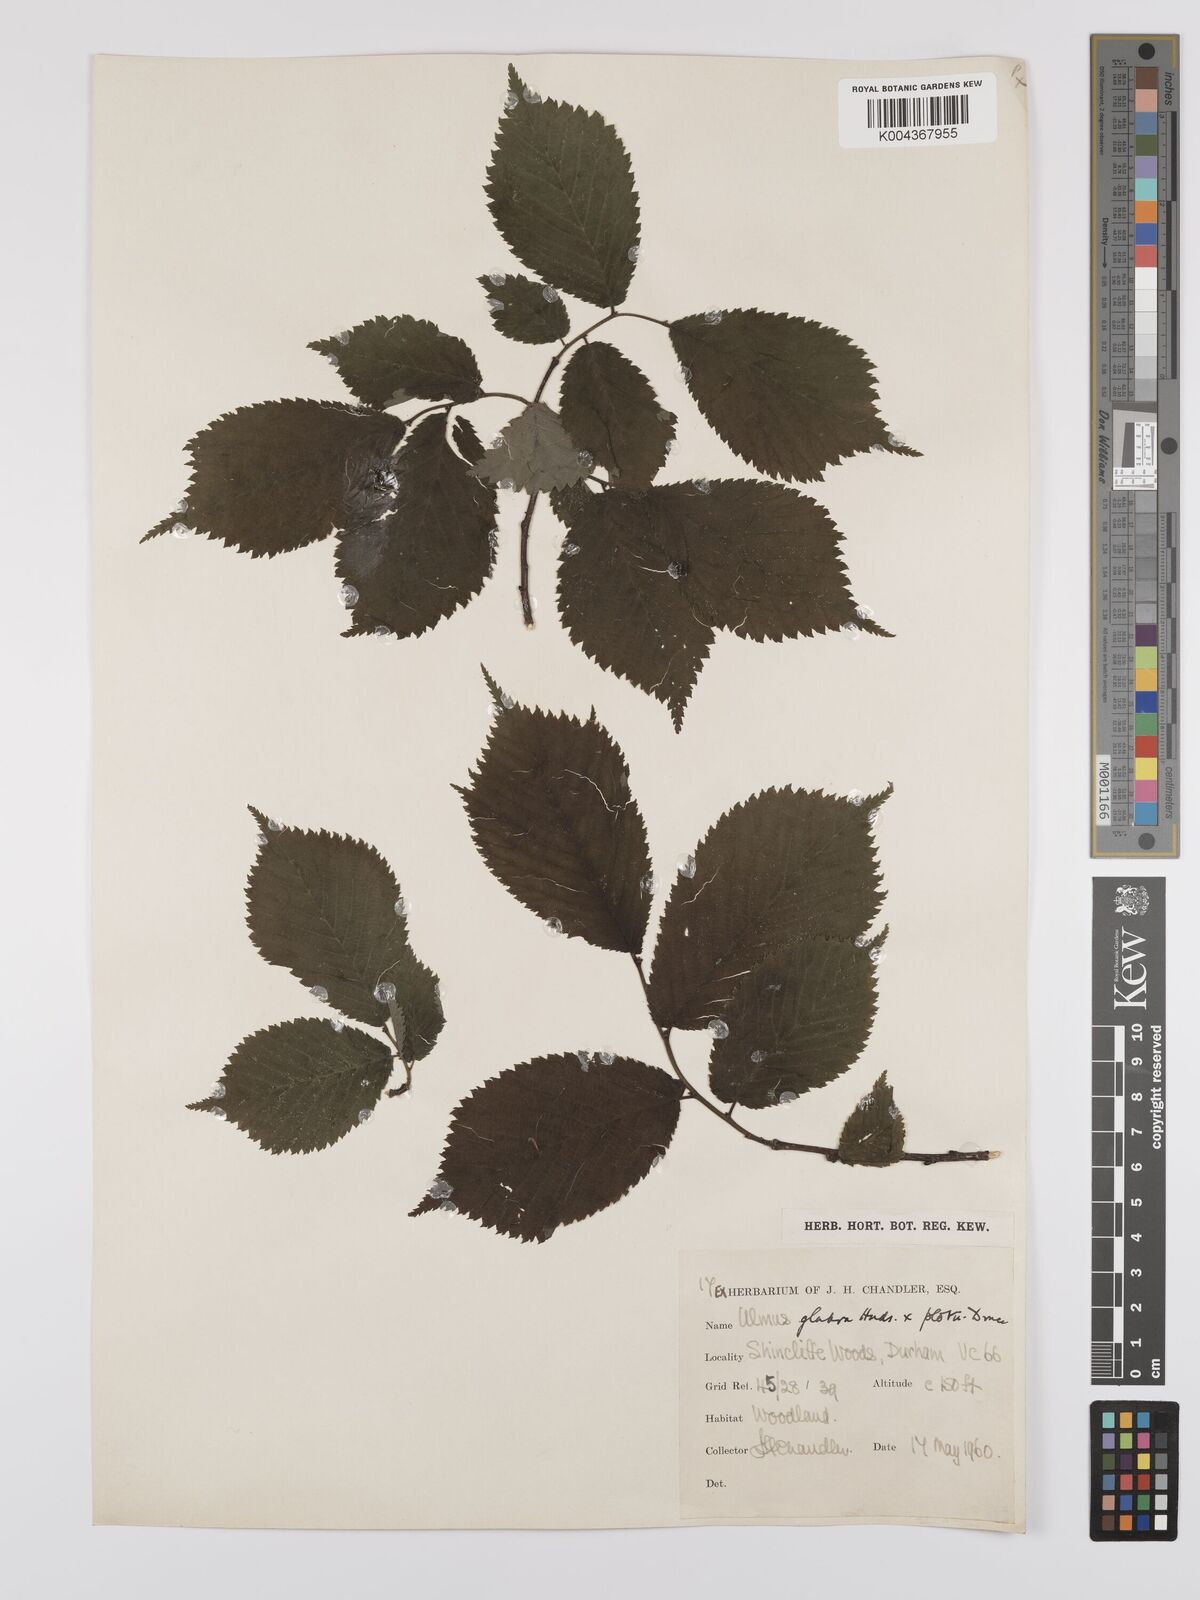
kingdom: Plantae
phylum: Tracheophyta
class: Magnoliopsida
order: Rosales
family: Ulmaceae
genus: Ulmus
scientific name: Ulmus glabra
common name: Wych elm
